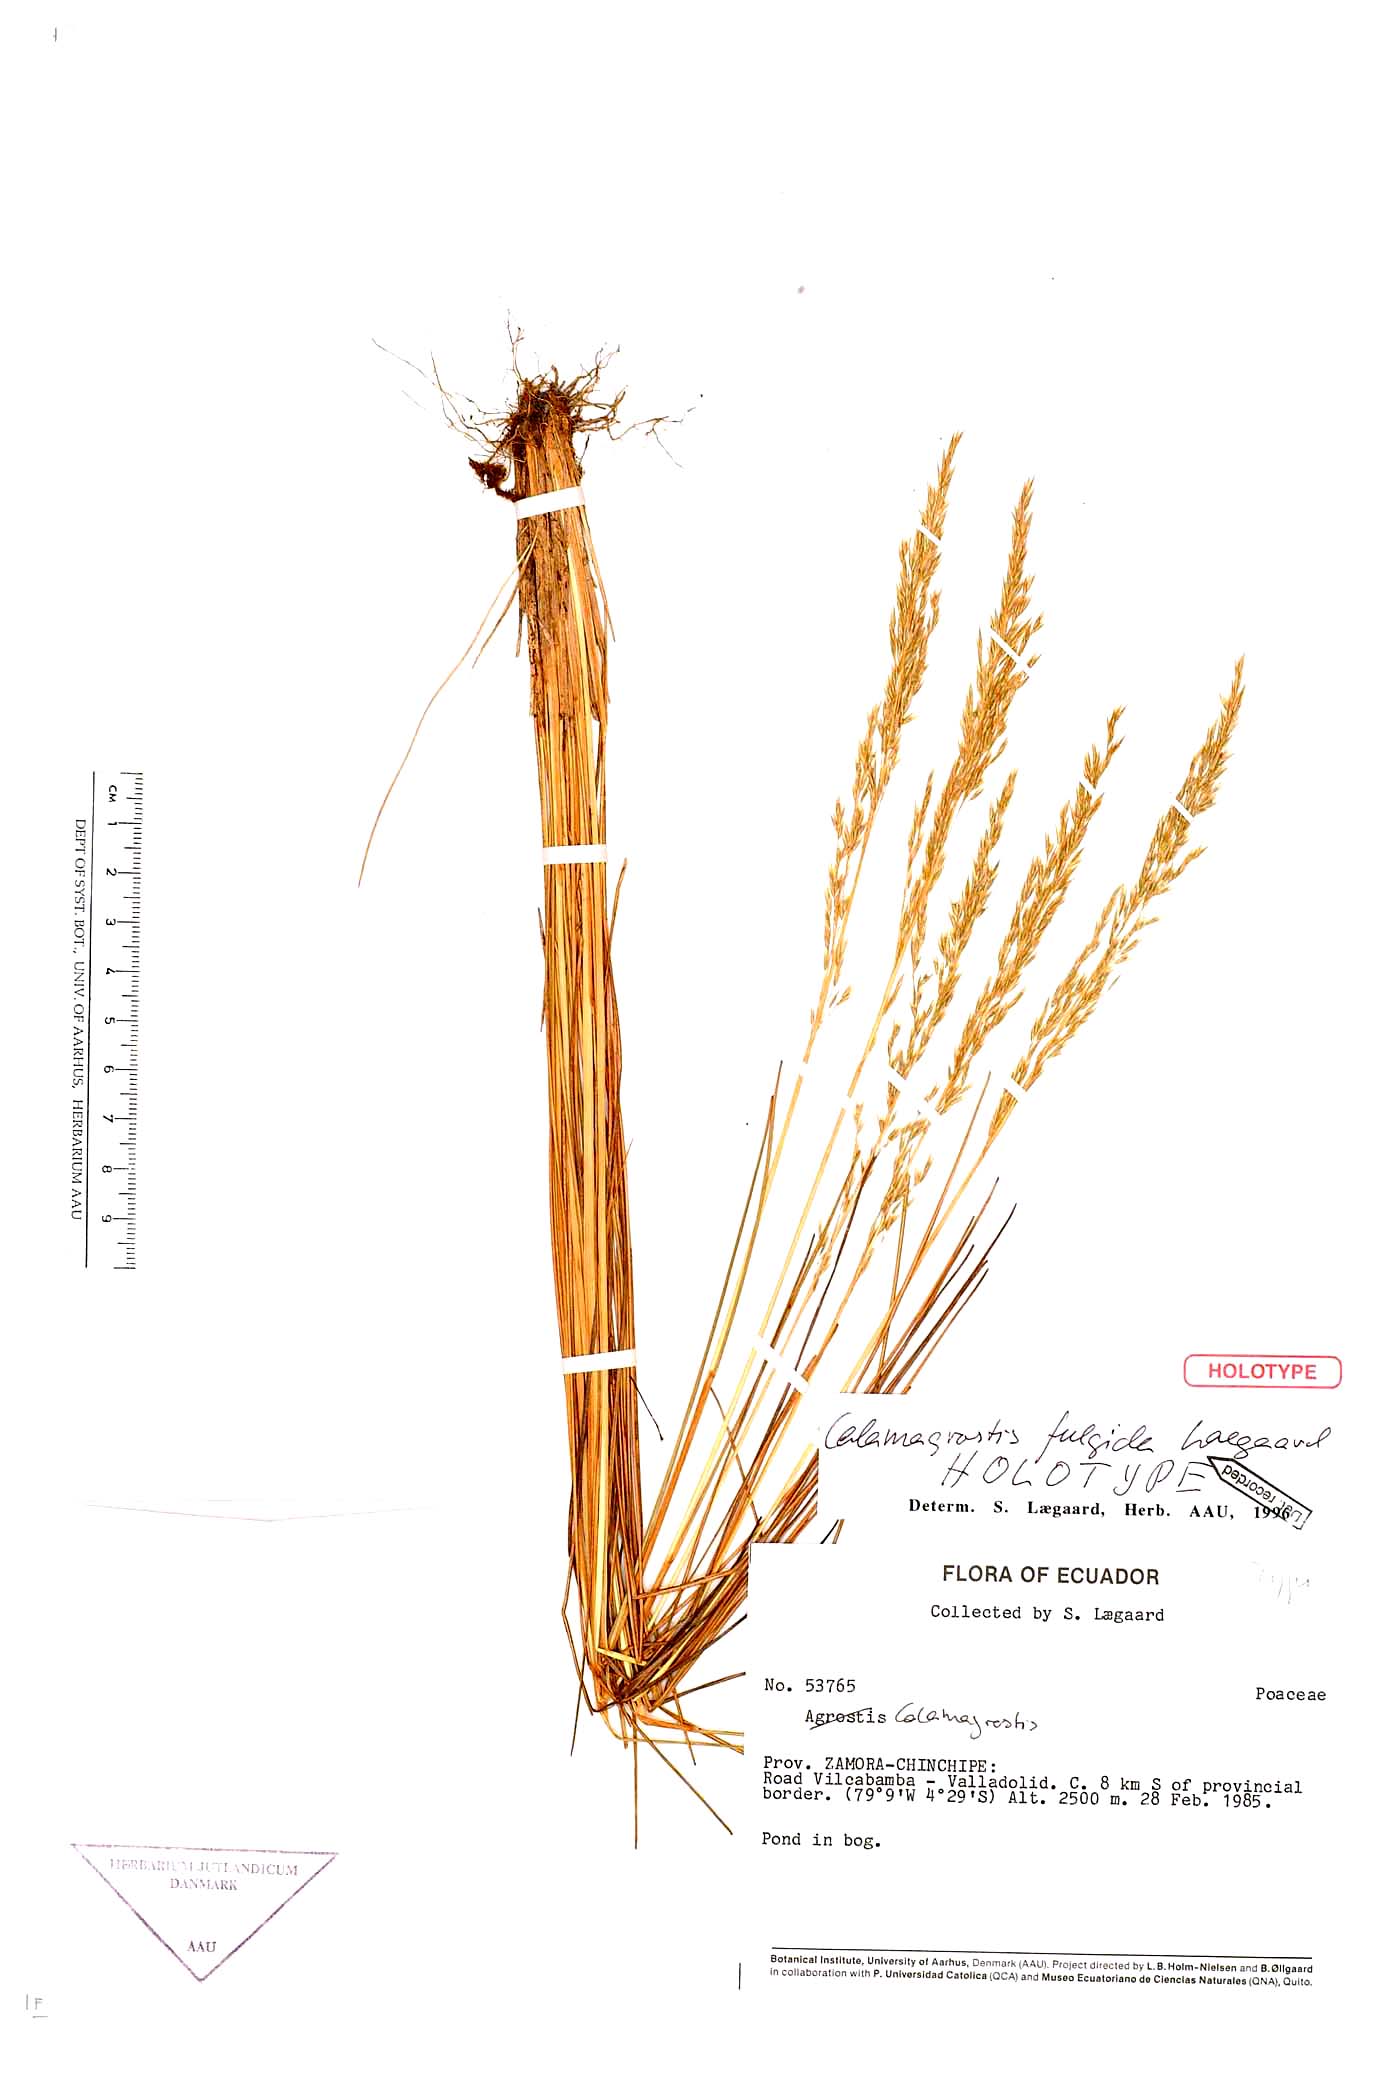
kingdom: Plantae
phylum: Tracheophyta
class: Liliopsida
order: Poales
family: Poaceae
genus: Calamagrostis
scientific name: Calamagrostis fulgida
